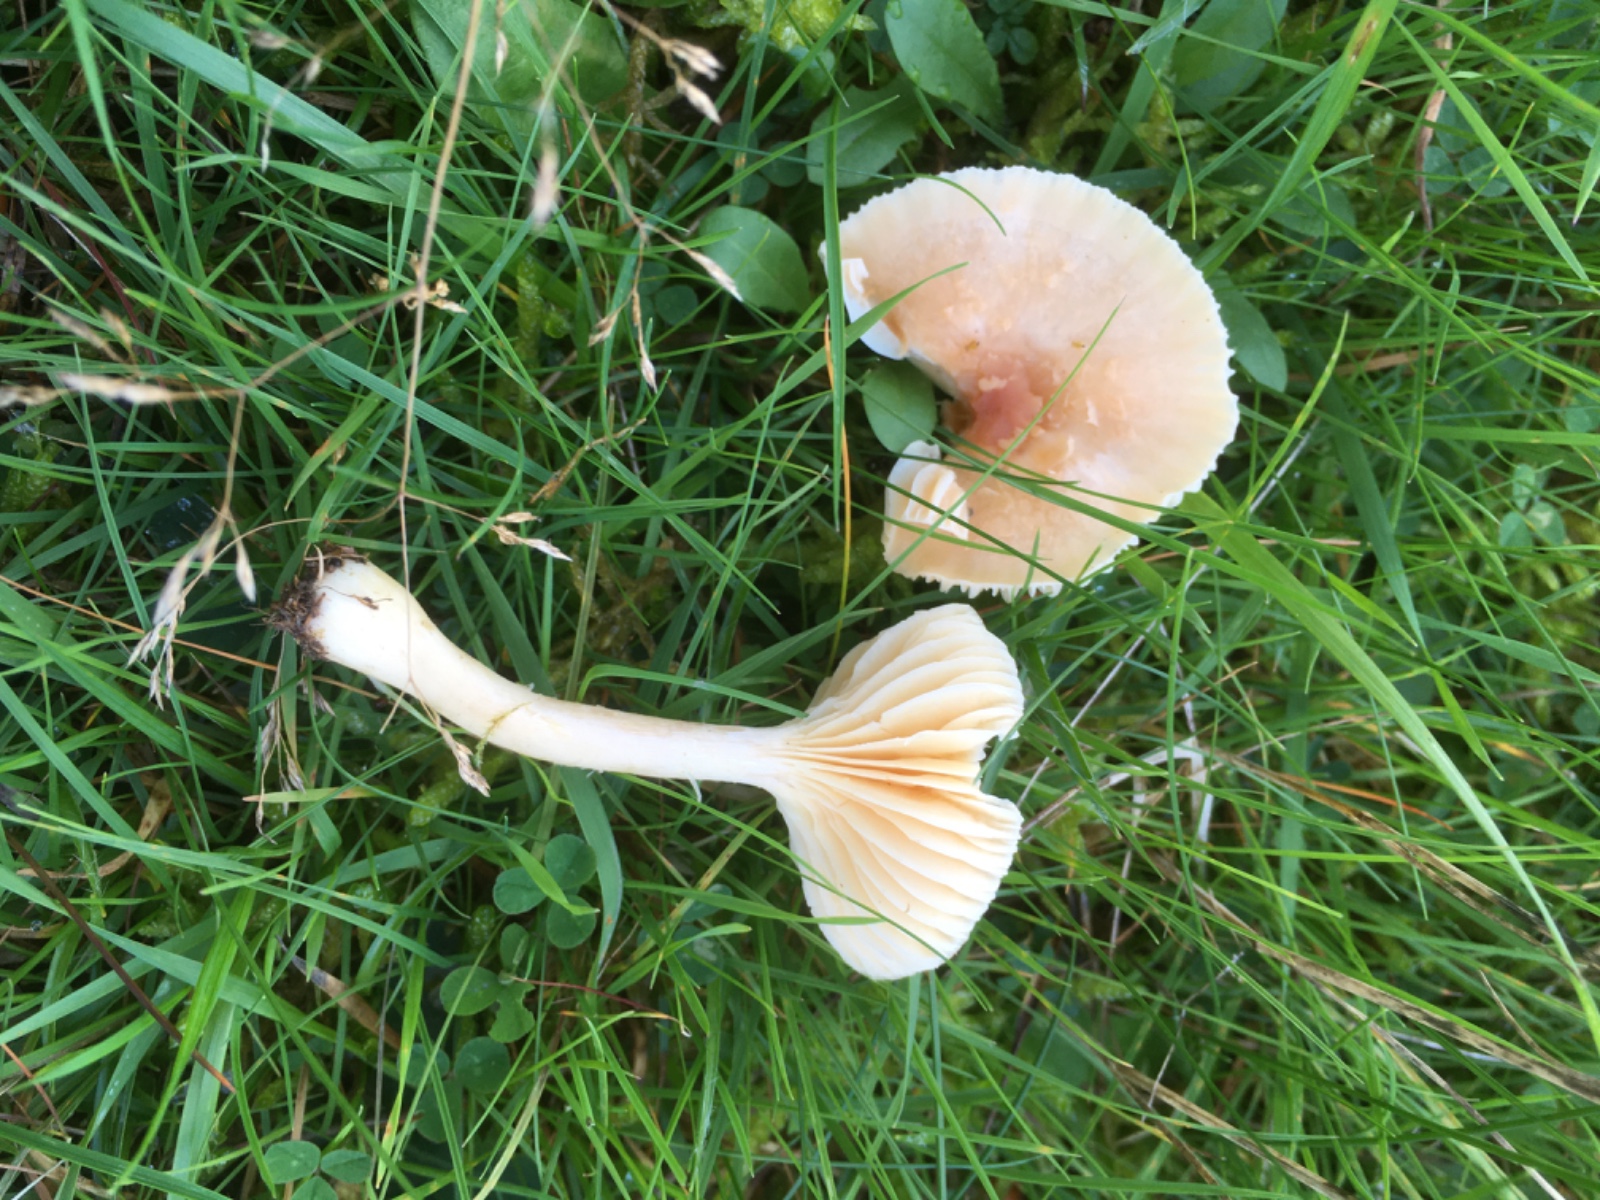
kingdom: Fungi
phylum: Basidiomycota
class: Agaricomycetes
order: Agaricales
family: Hygrophoraceae
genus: Cuphophyllus
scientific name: Cuphophyllus pratensis
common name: eng-vokshat
